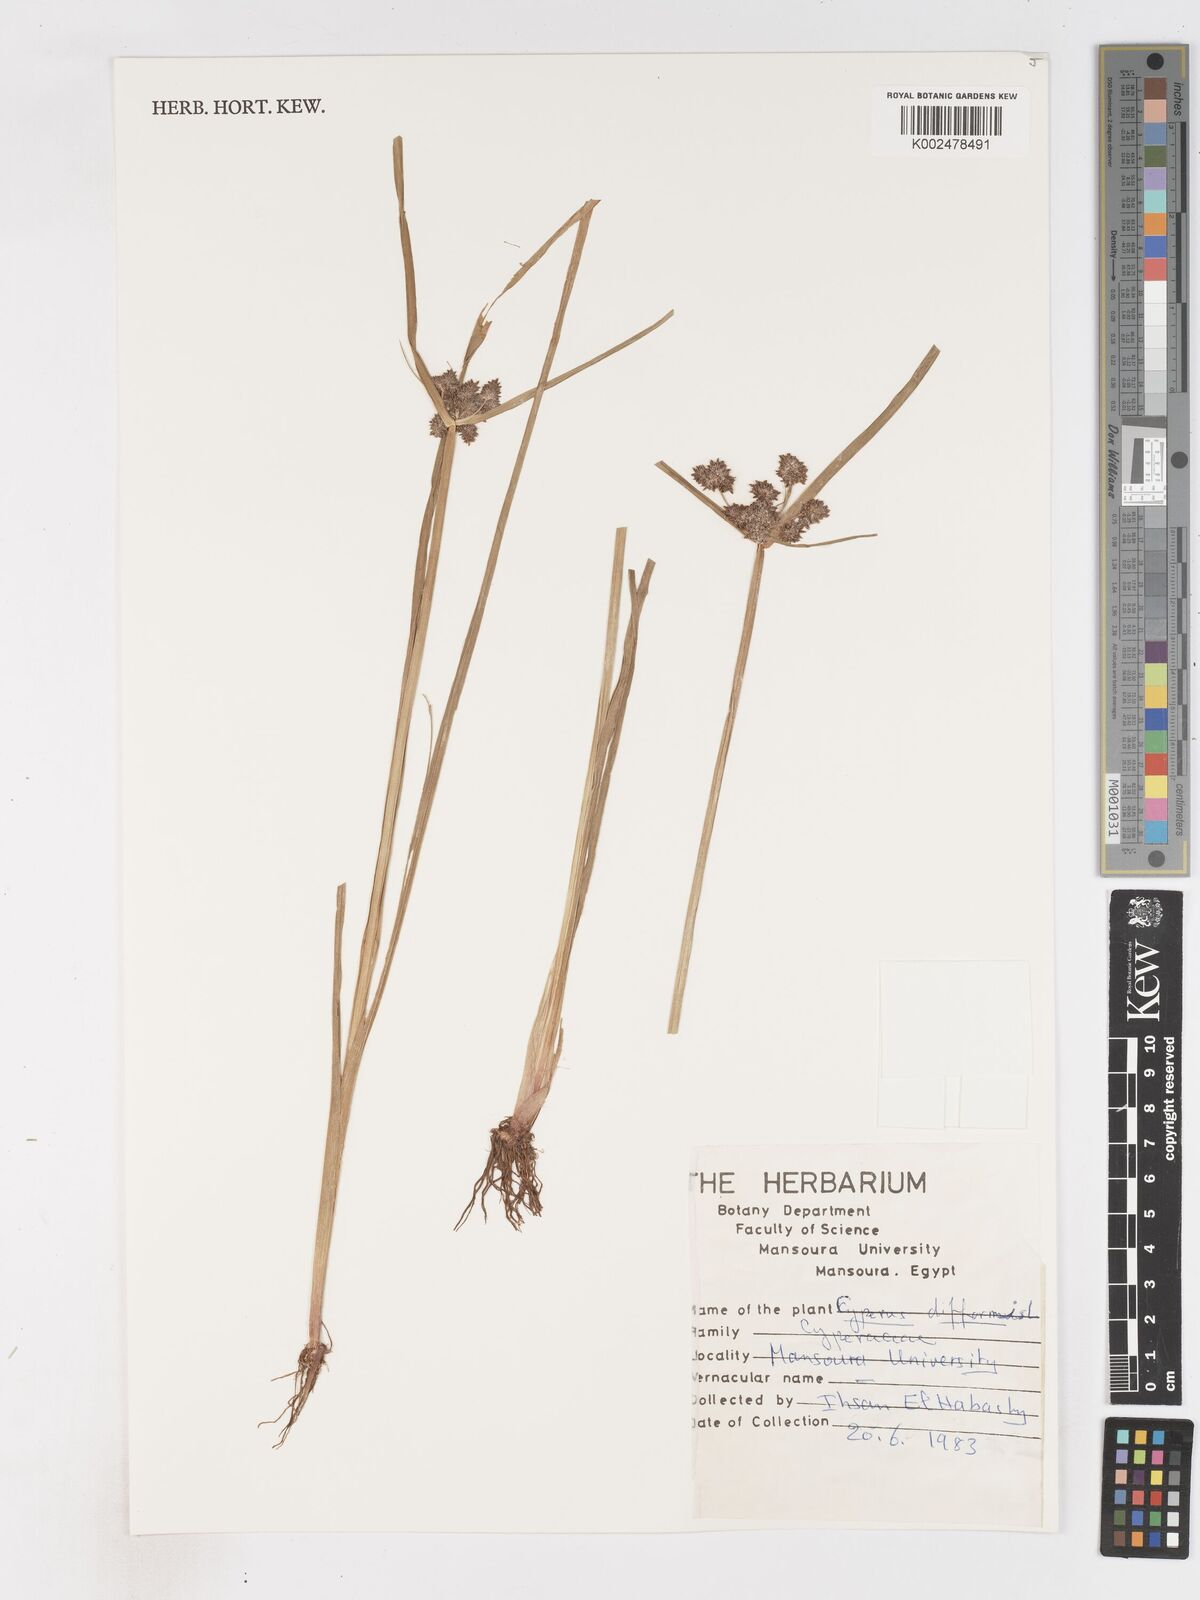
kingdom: Plantae
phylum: Tracheophyta
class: Liliopsida
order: Poales
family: Cyperaceae
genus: Cyperus
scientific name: Cyperus difformis
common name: Variable flatsedge
